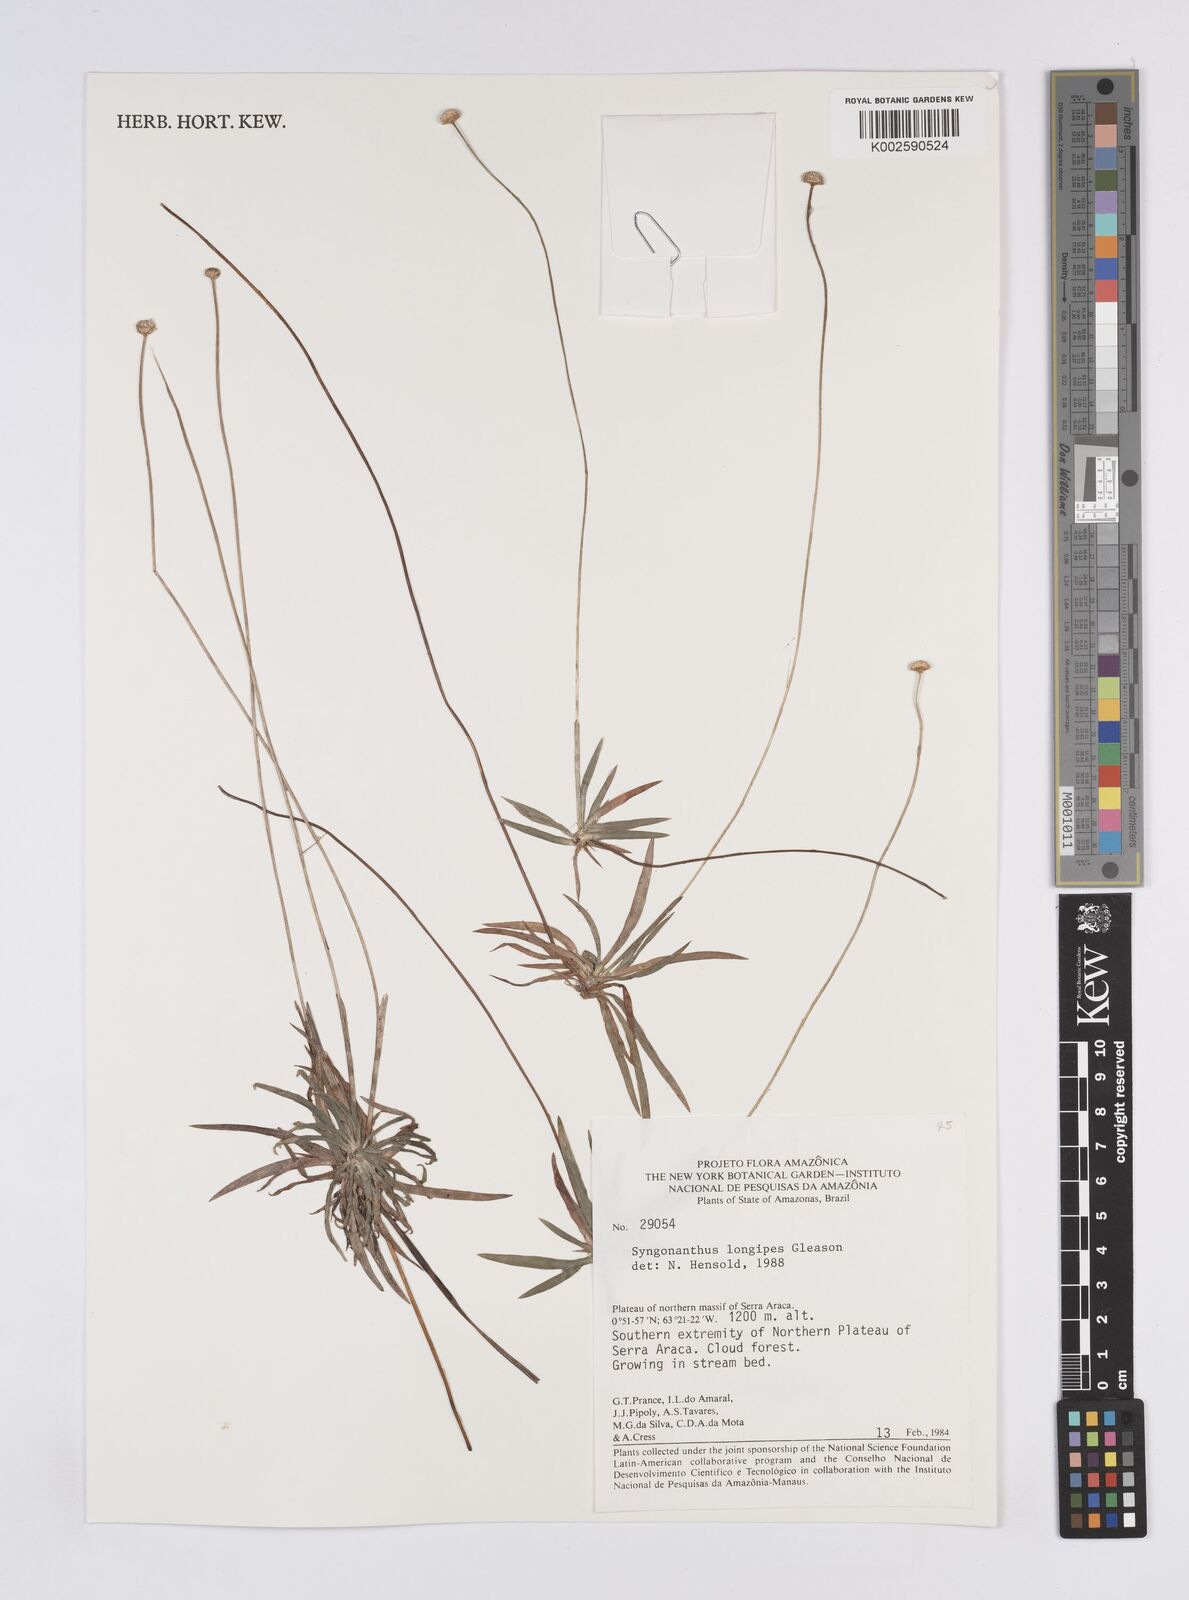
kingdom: Plantae
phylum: Tracheophyta
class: Liliopsida
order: Poales
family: Eriocaulaceae
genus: Syngonanthus
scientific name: Syngonanthus longipes
